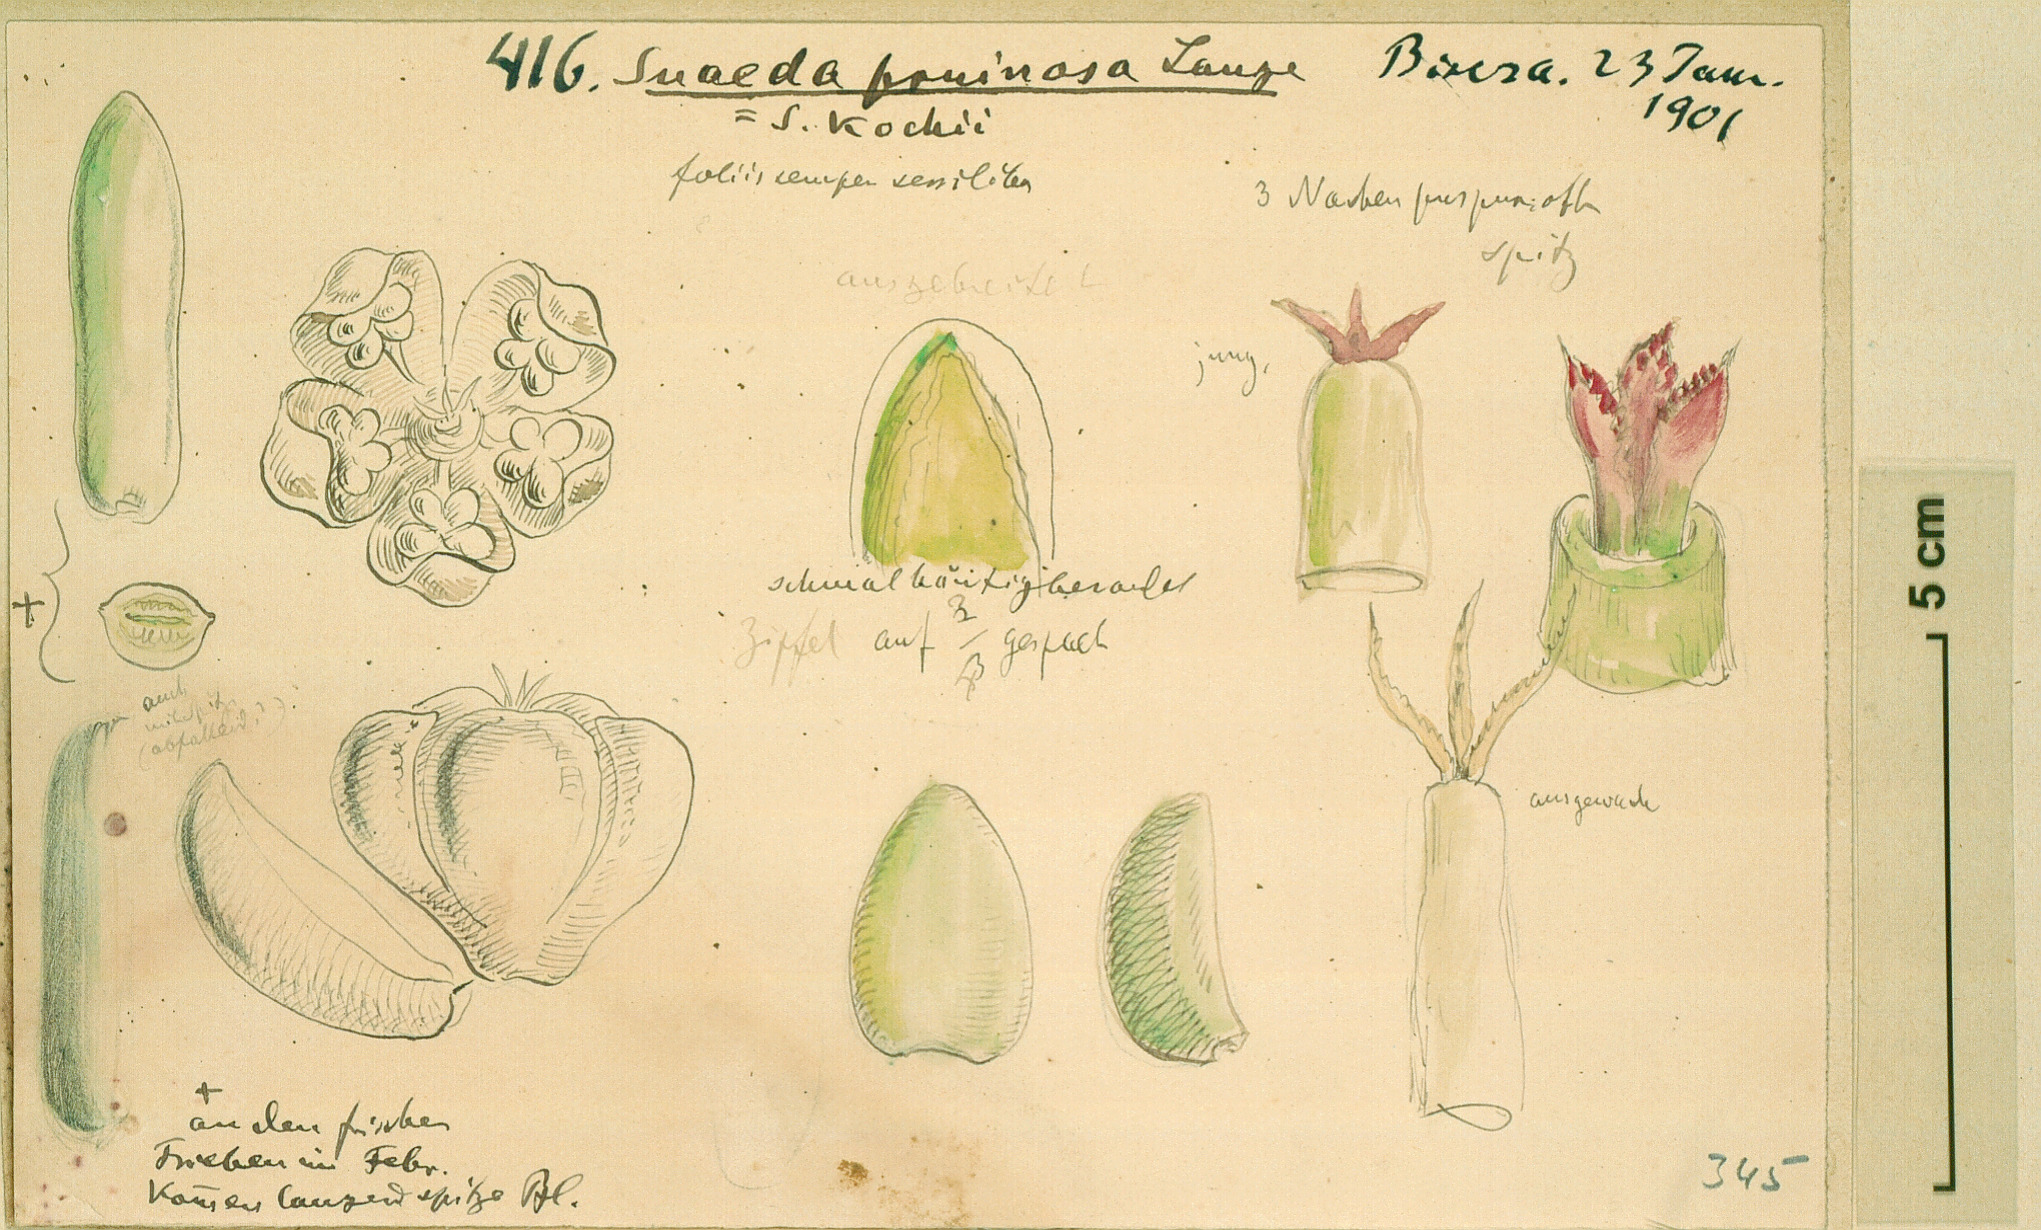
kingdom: Plantae
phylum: Tracheophyta
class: Magnoliopsida
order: Caryophyllales
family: Amaranthaceae
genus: Suaeda
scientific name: Suaeda vermiculata
